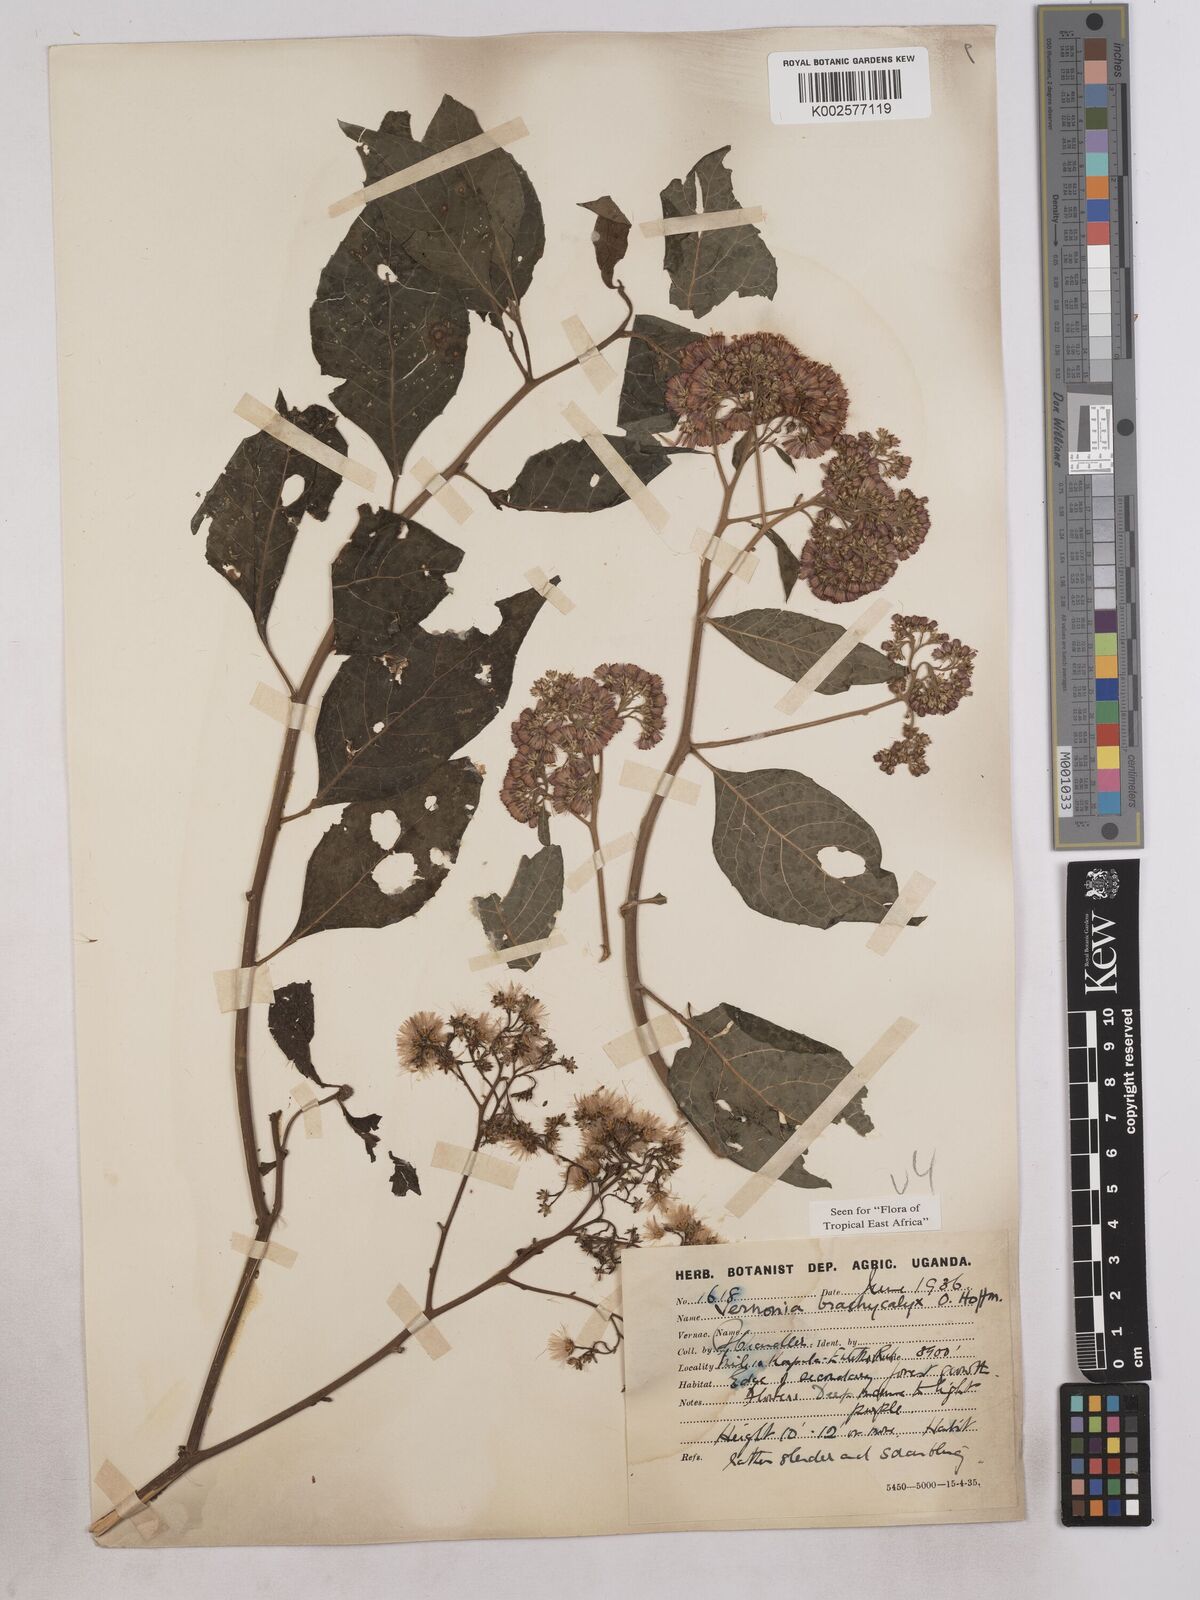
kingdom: Plantae
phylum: Tracheophyta
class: Magnoliopsida
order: Asterales
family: Asteraceae
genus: Hoffmannanthus
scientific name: Hoffmannanthus abbotianus
